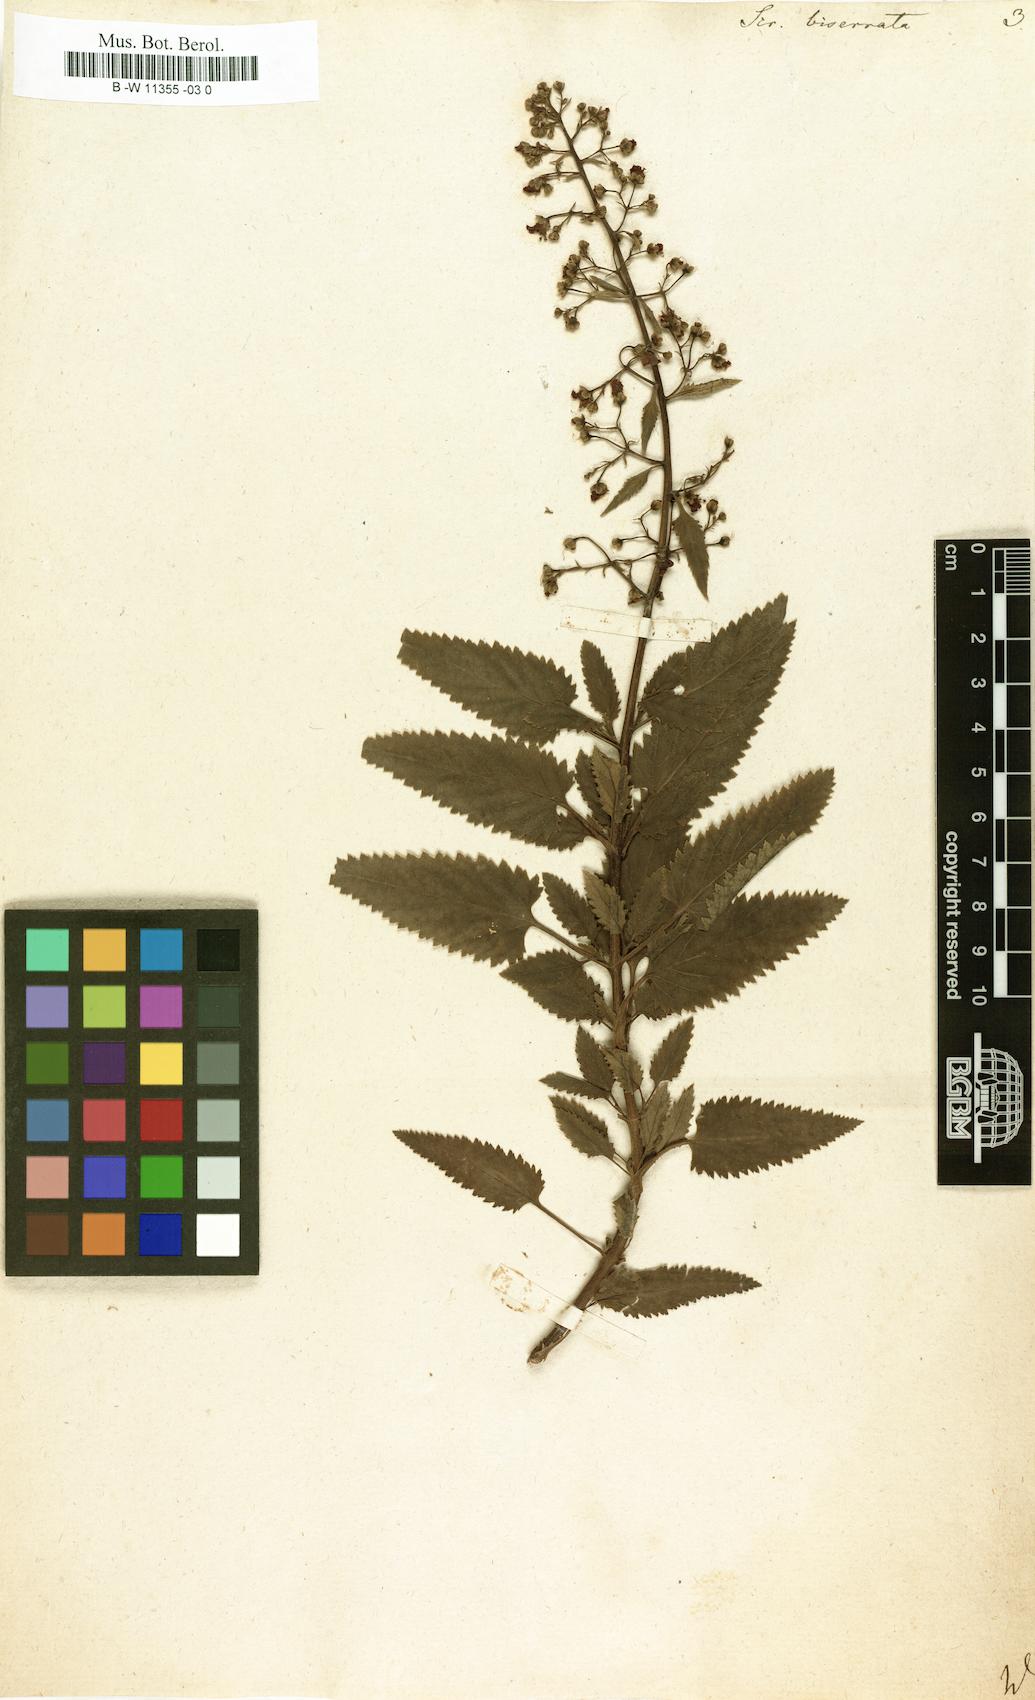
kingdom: Plantae
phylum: Tracheophyta
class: Magnoliopsida
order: Lamiales
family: Scrophulariaceae
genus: Scrophularia
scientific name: Scrophularia scorodonia
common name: Balm-leaved figwort
